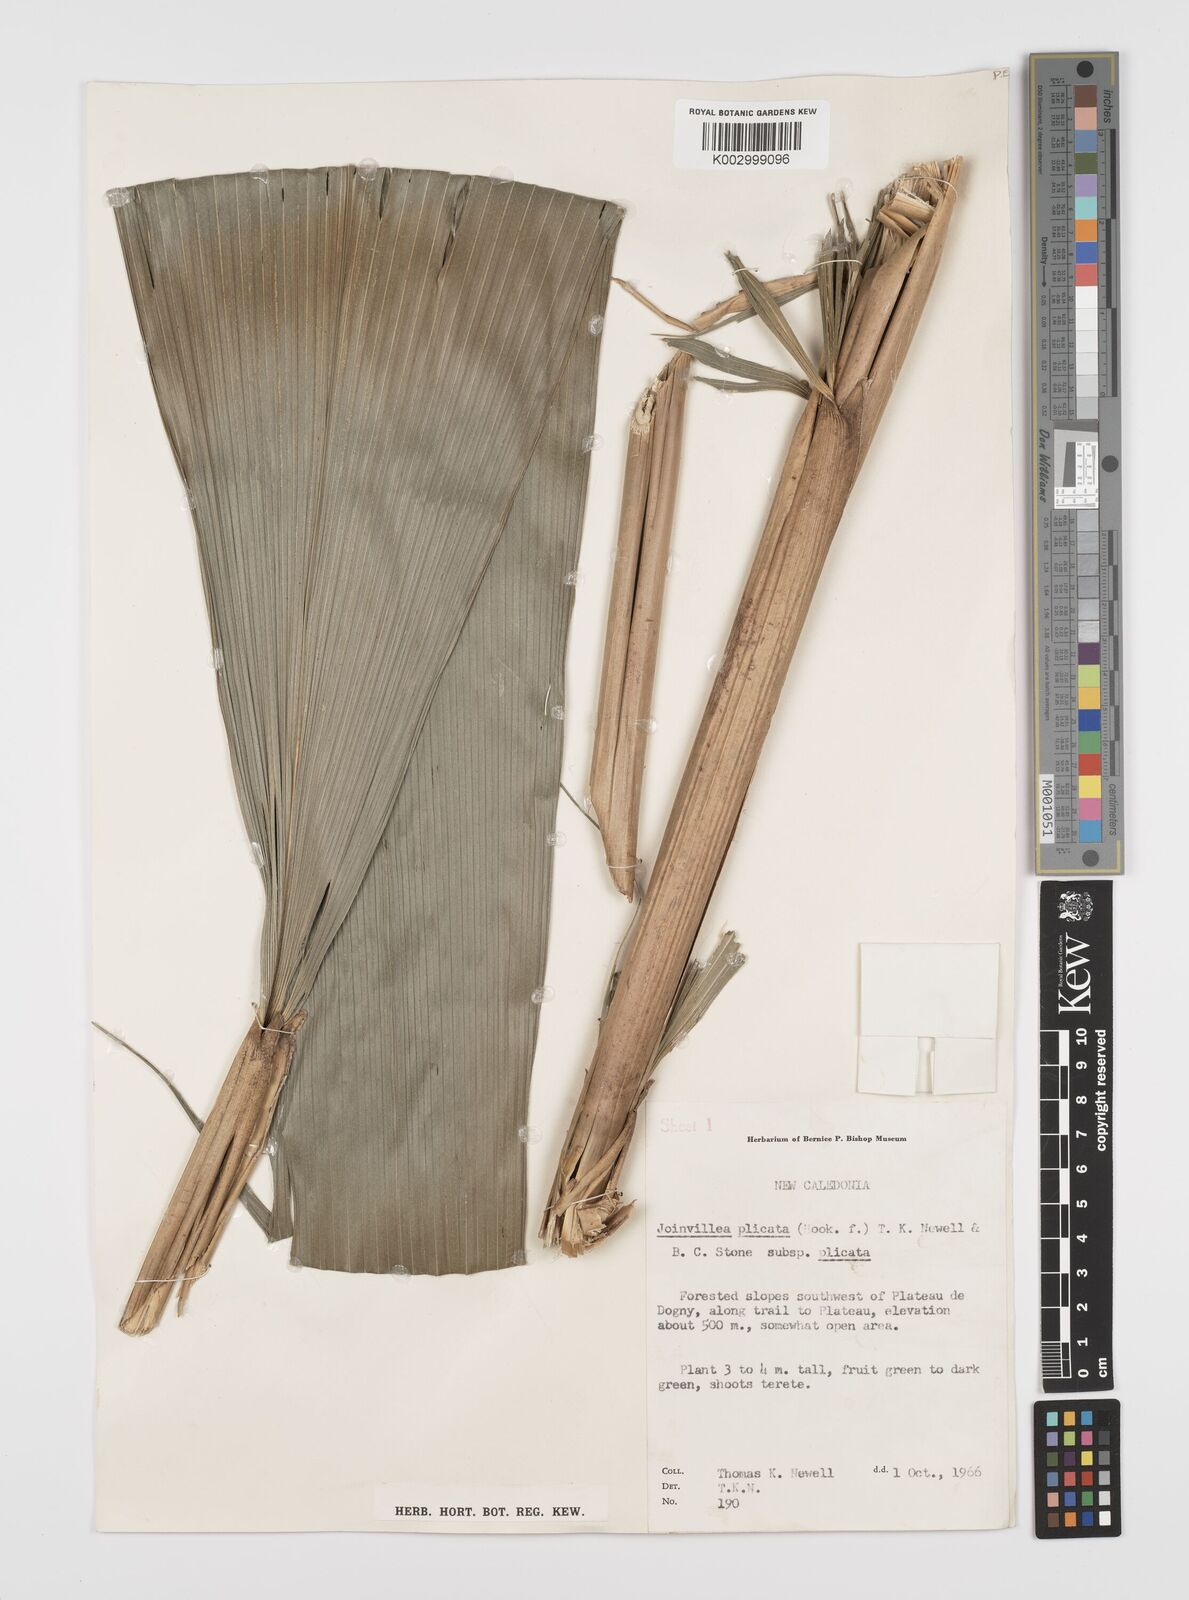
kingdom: Plantae
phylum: Tracheophyta
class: Liliopsida
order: Poales
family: Joinvilleaceae
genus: Joinvillea
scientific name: Joinvillea plicata
